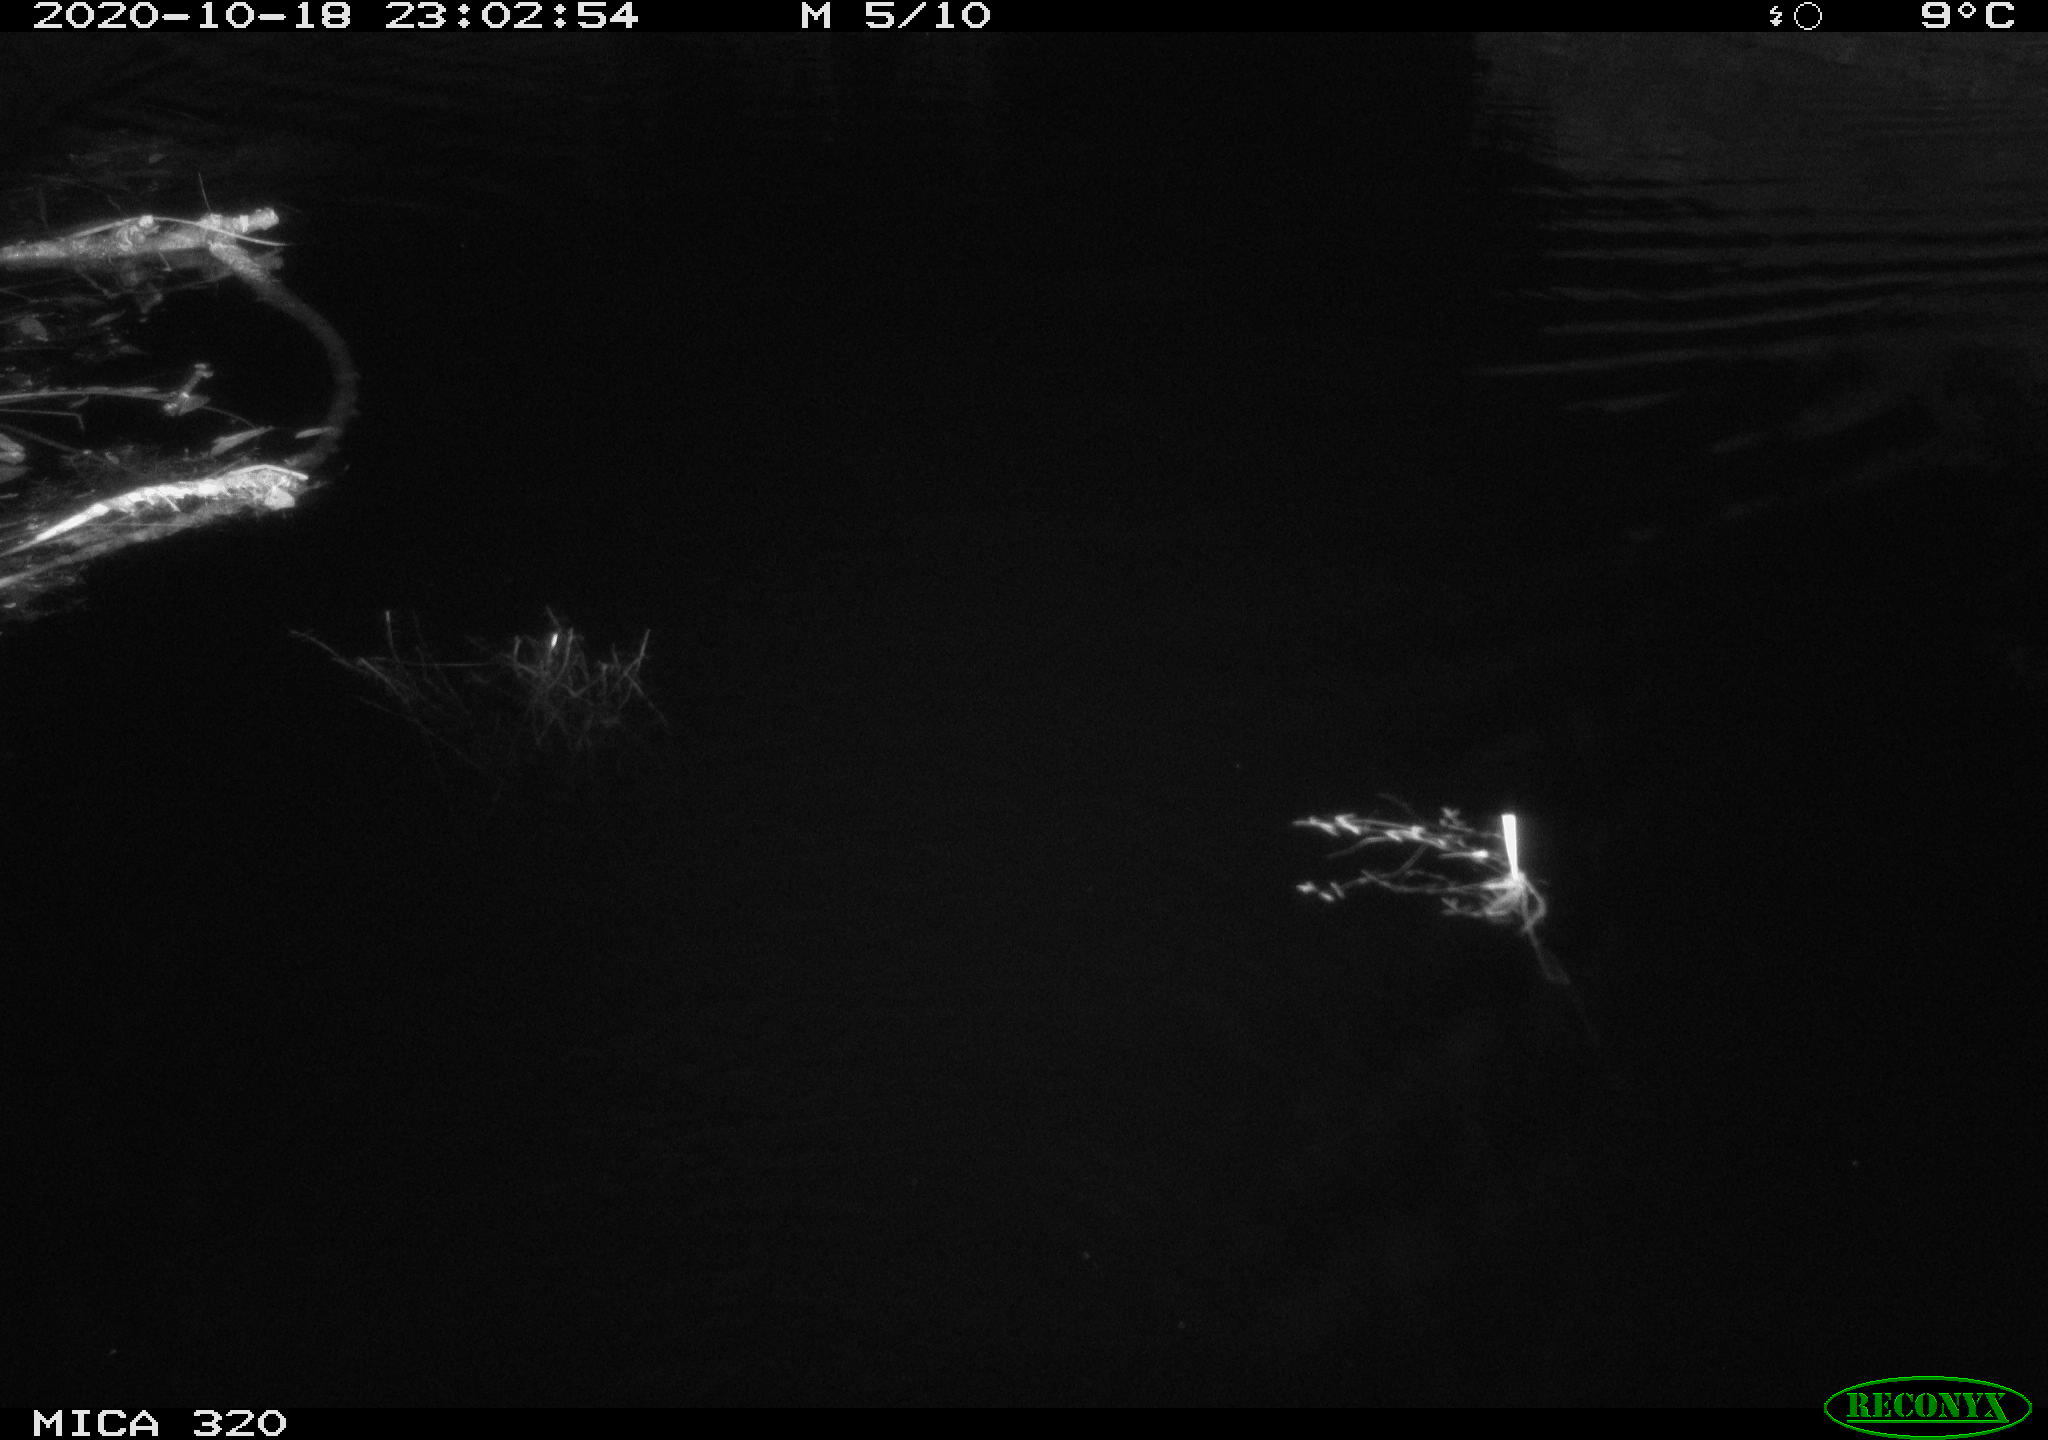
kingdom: Animalia
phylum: Chordata
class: Mammalia
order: Rodentia
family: Muridae
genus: Rattus
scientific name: Rattus norvegicus
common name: Brown rat
